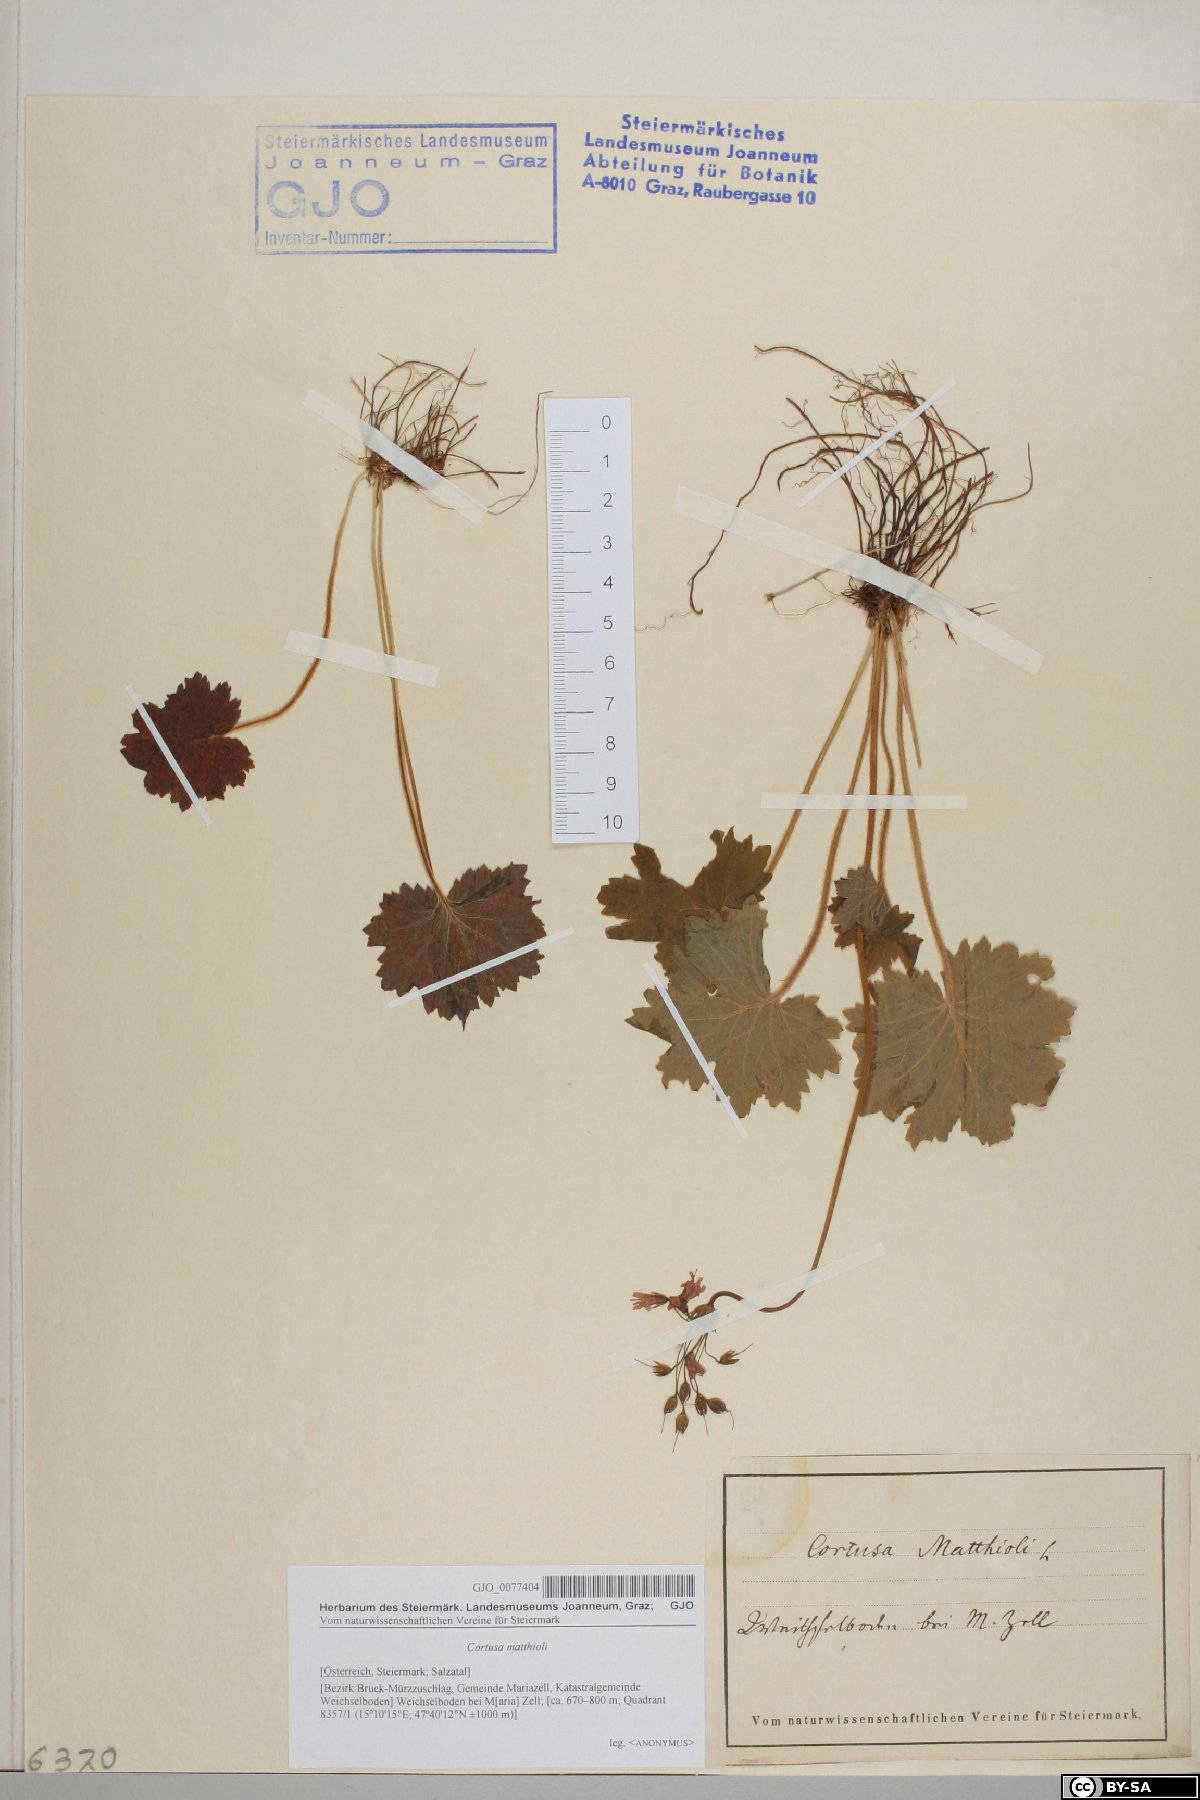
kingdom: Plantae
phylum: Tracheophyta
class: Magnoliopsida
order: Ericales
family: Primulaceae
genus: Primula
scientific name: Primula matthioli
